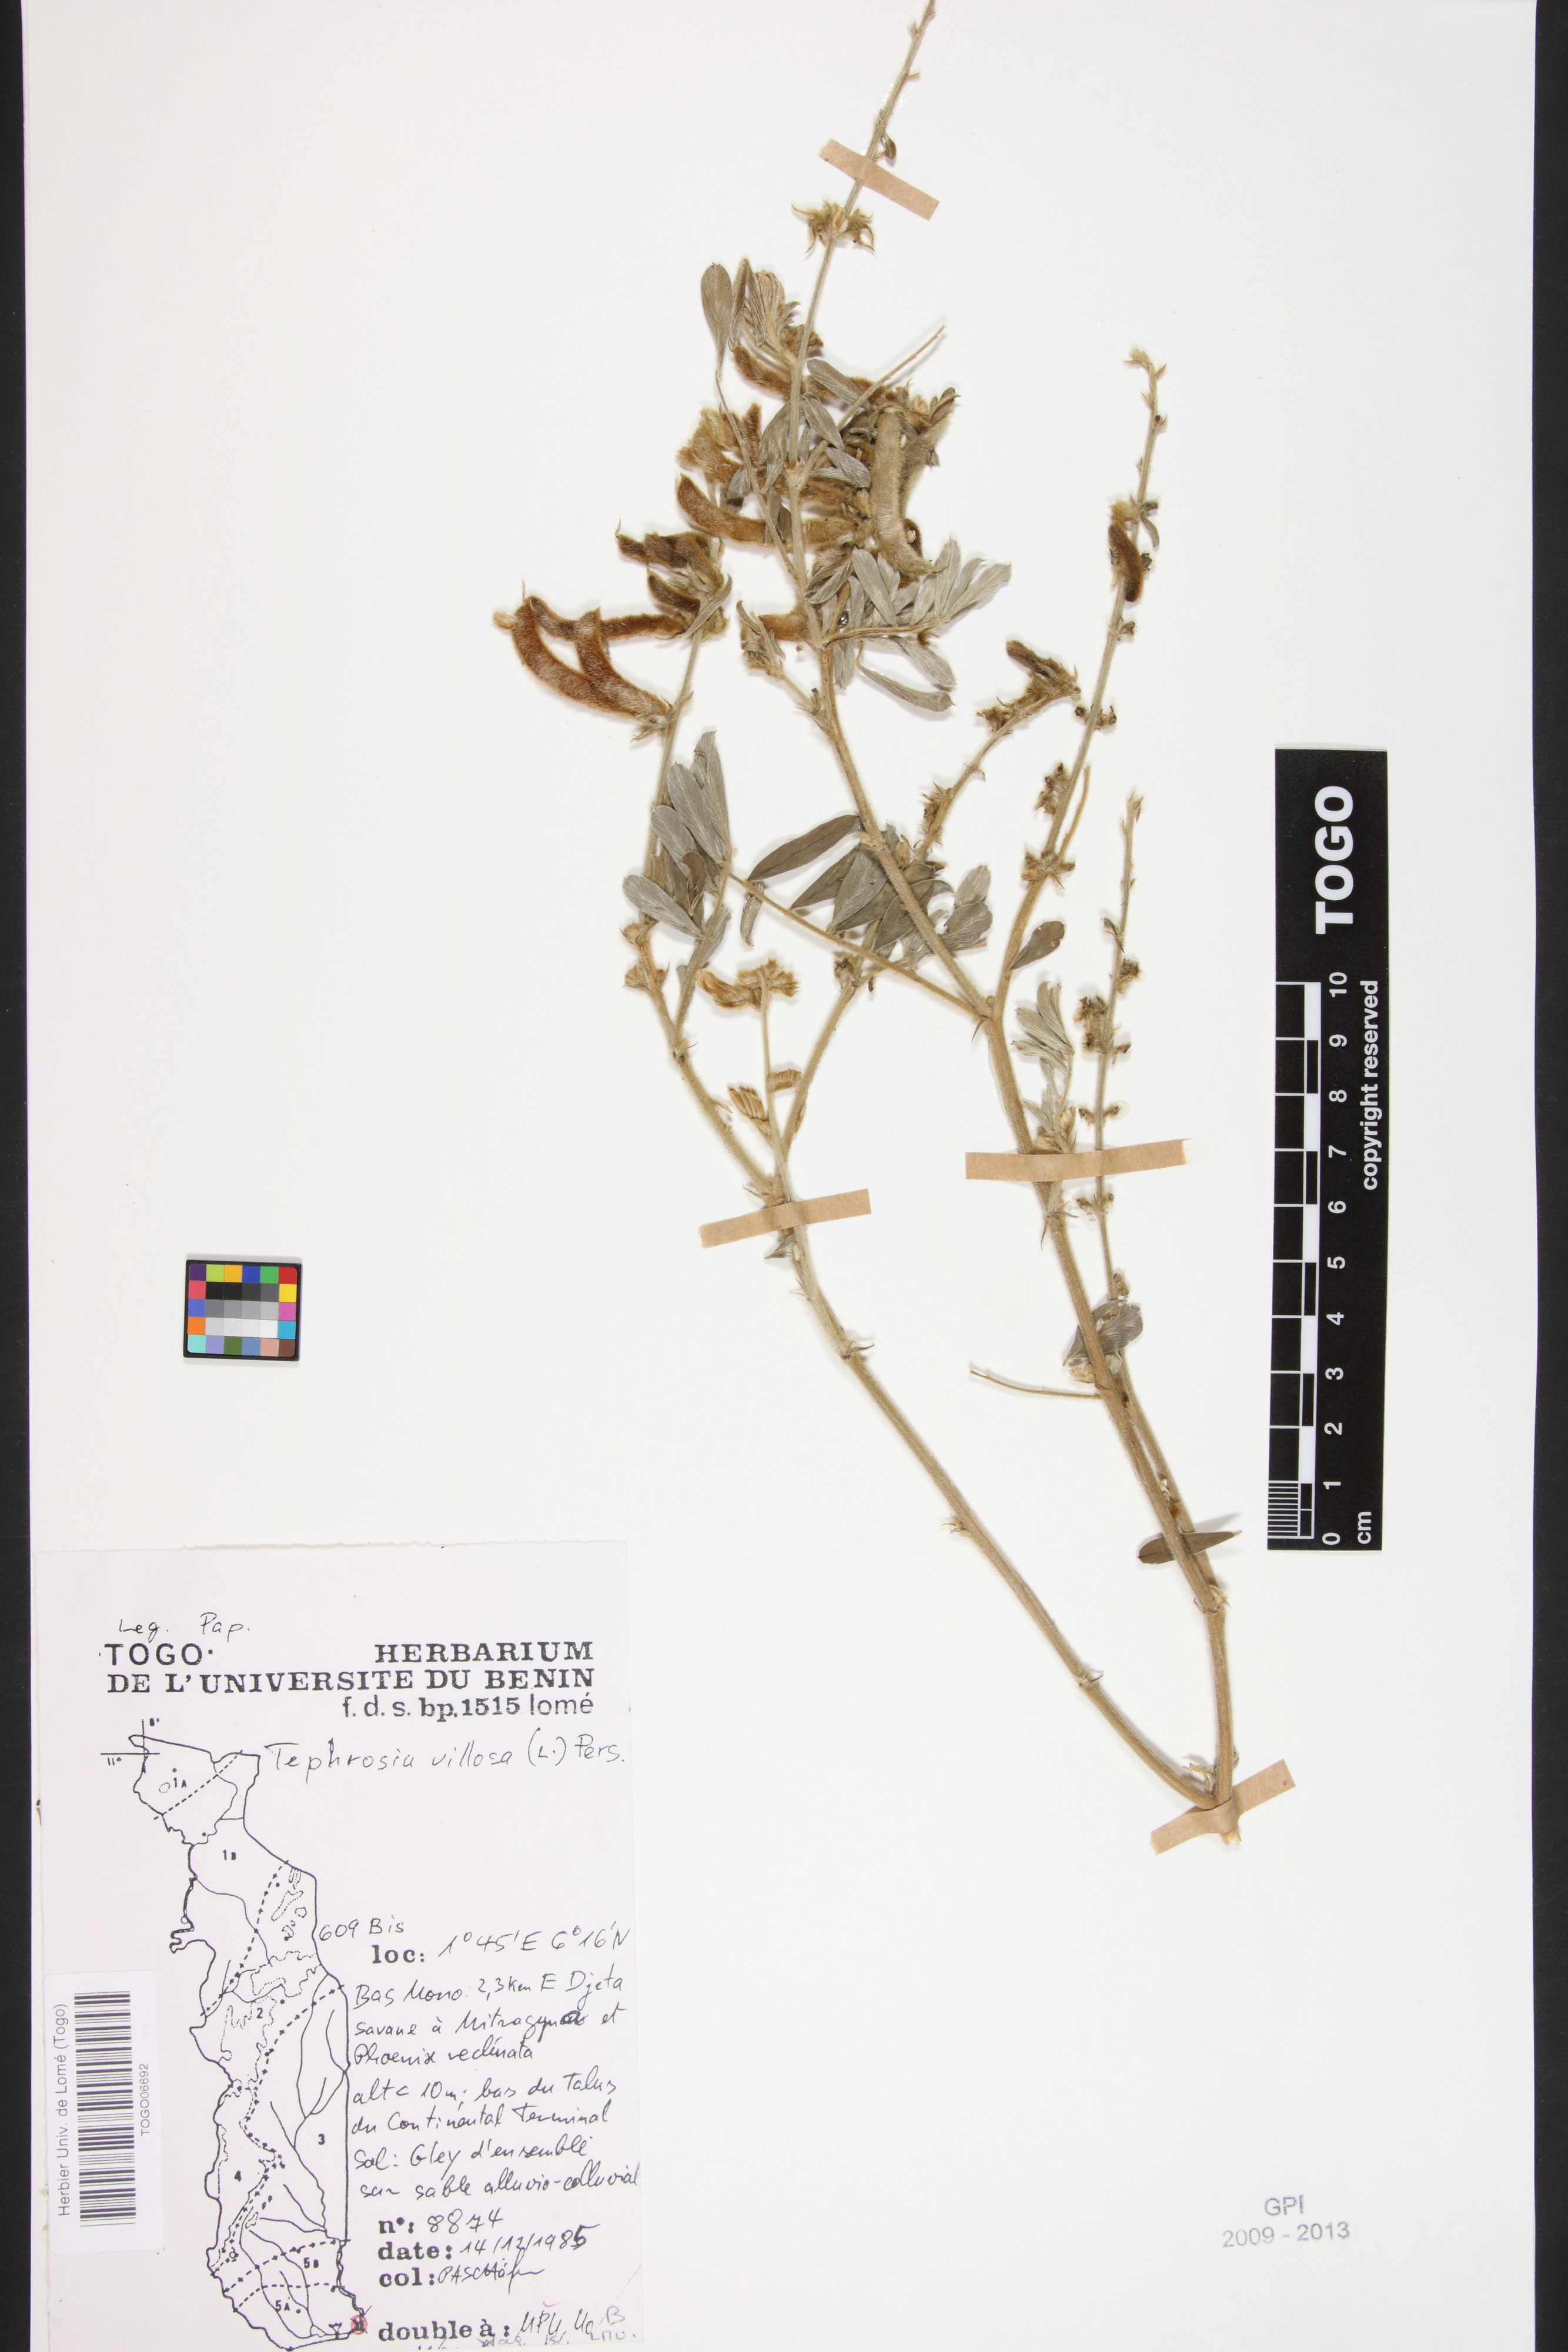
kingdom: Plantae
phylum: Tracheophyta
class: Magnoliopsida
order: Fabales
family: Fabaceae
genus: Tephrosia
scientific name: Tephrosia villosa
